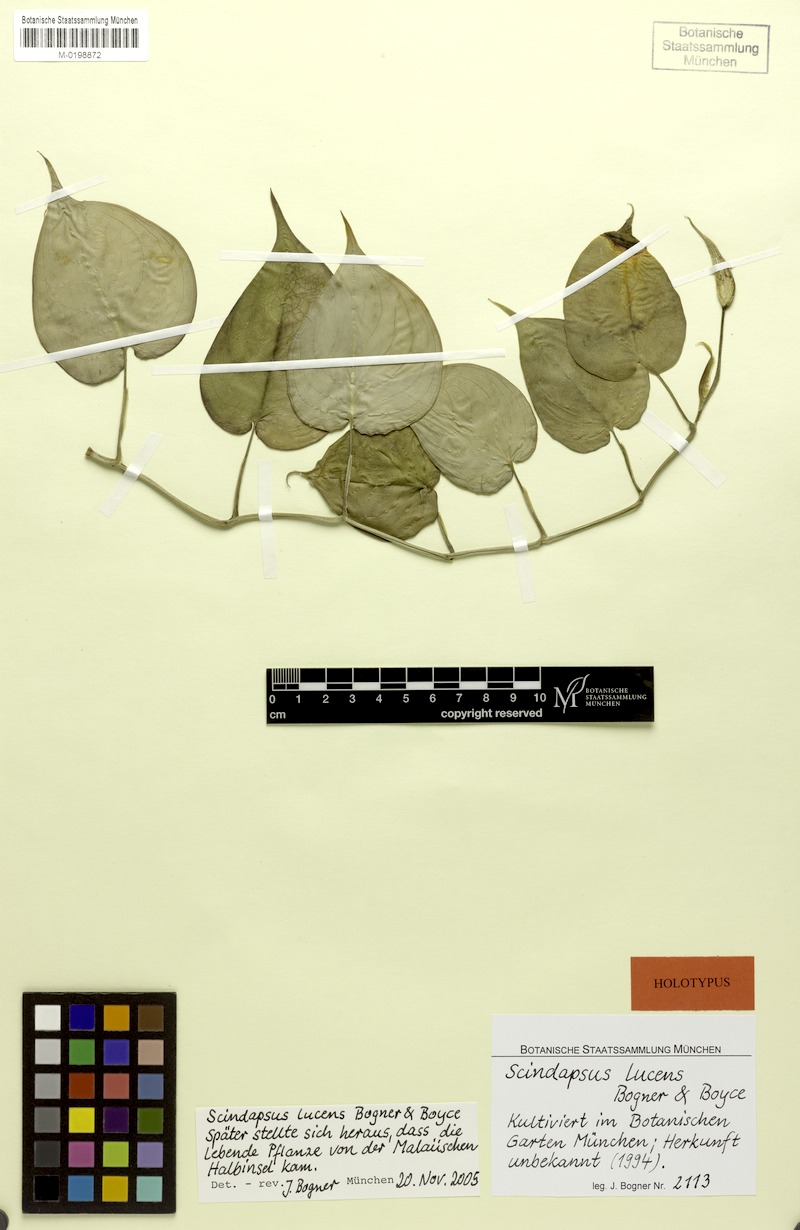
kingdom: Plantae
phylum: Tracheophyta
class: Liliopsida
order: Alismatales
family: Araceae
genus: Scindapsus
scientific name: Scindapsus lucens
